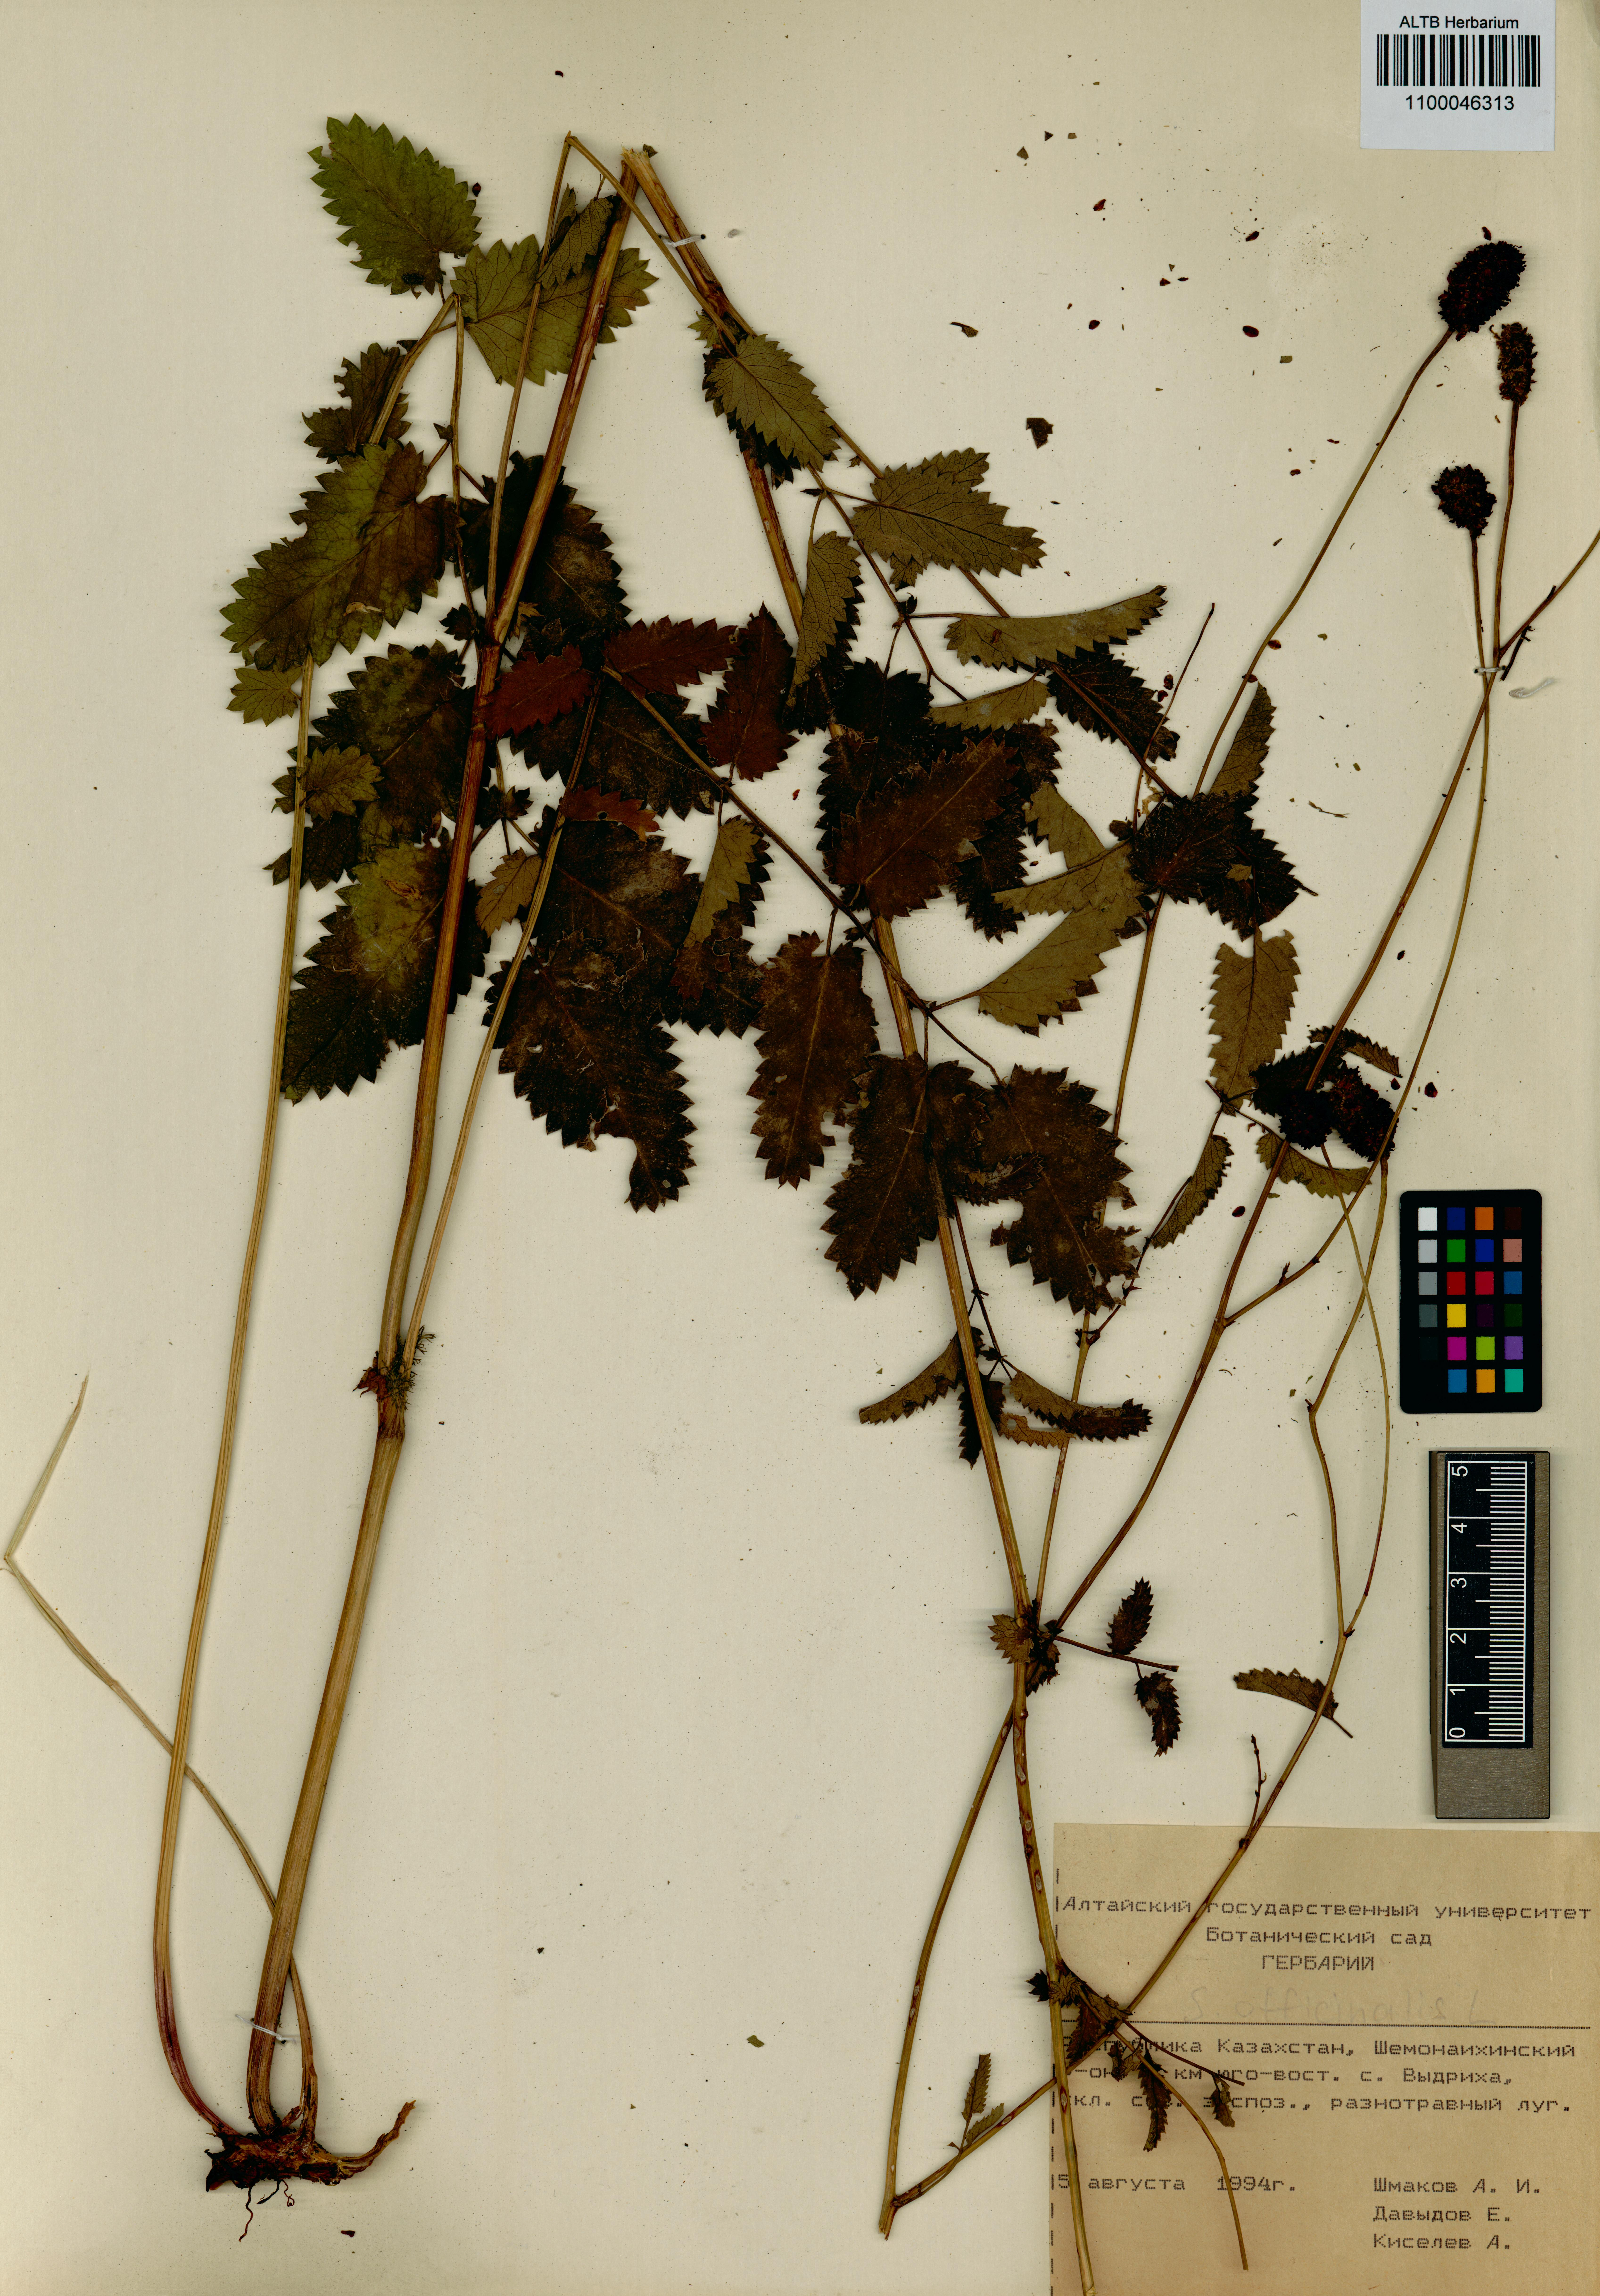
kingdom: Plantae
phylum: Tracheophyta
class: Magnoliopsida
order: Rosales
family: Rosaceae
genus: Sanguisorba
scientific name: Sanguisorba officinalis
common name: Great burnet
